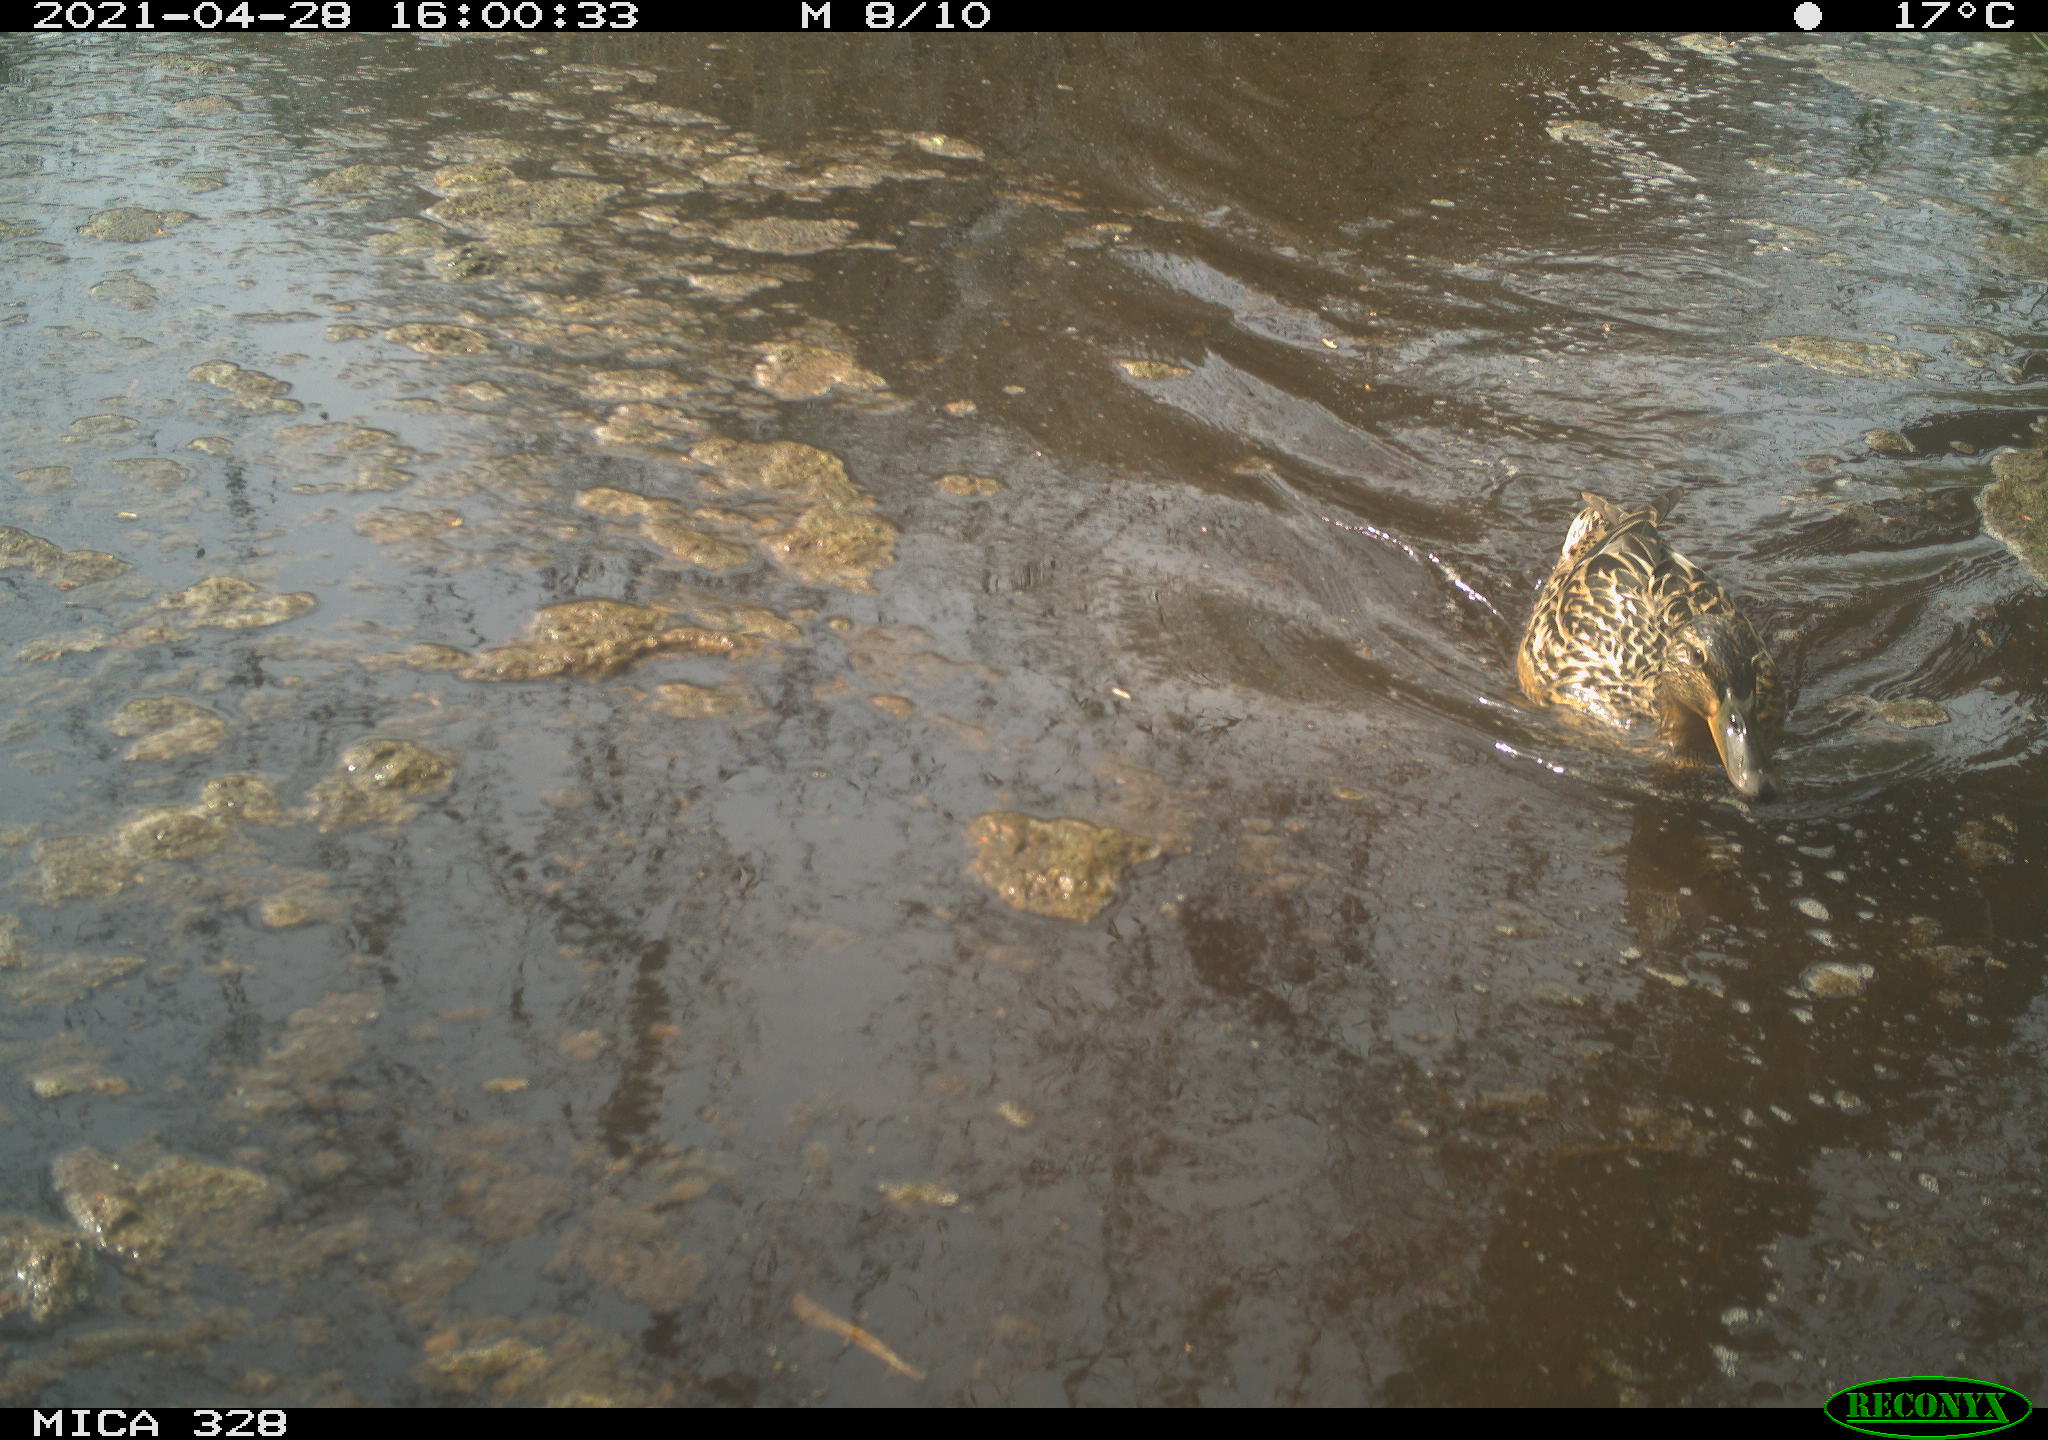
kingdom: Animalia
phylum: Chordata
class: Aves
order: Anseriformes
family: Anatidae
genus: Anas
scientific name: Anas platyrhynchos
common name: Mallard
